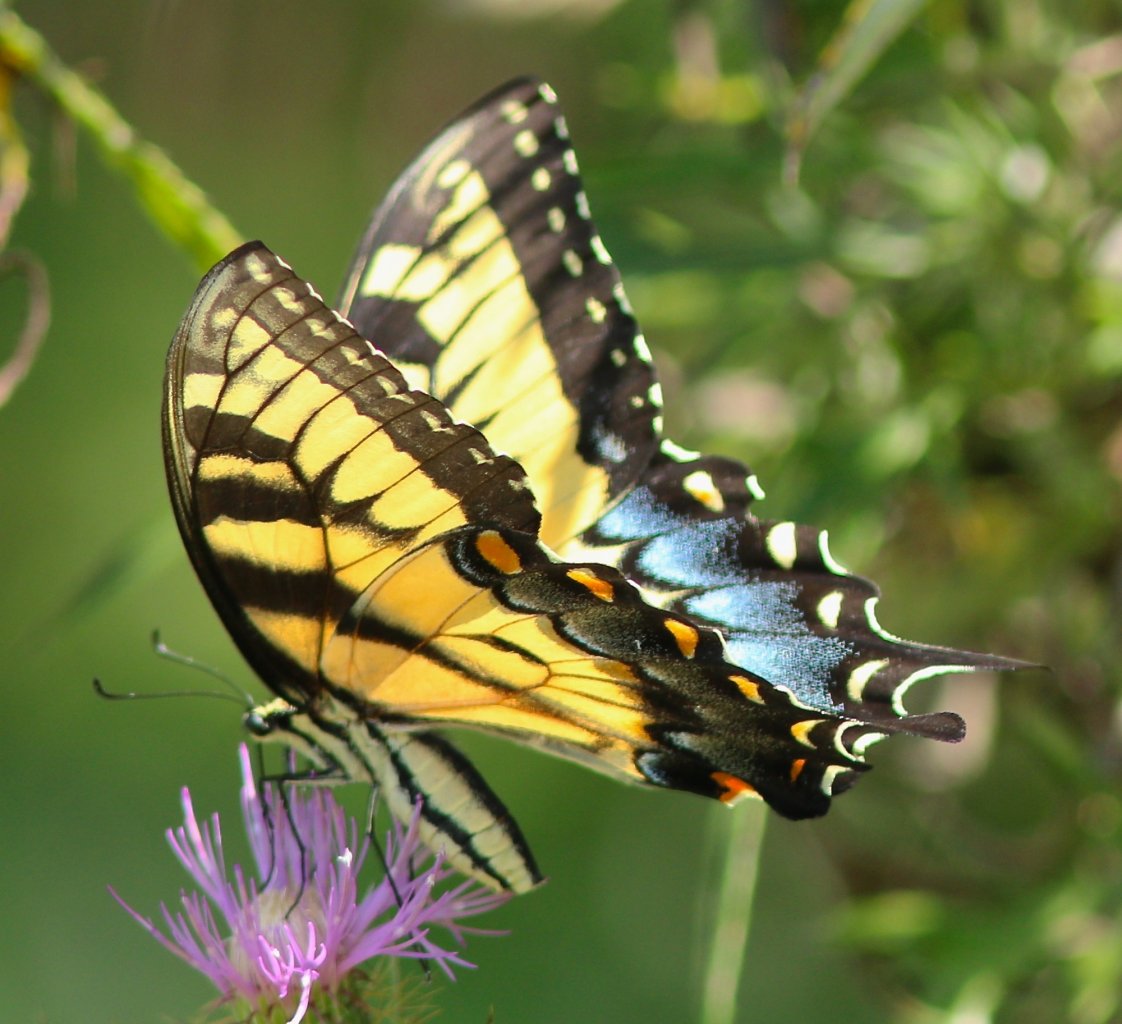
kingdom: Animalia
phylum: Arthropoda
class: Insecta
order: Lepidoptera
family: Papilionidae
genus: Pterourus
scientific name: Pterourus glaucus
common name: Eastern Tiger Swallowtail
